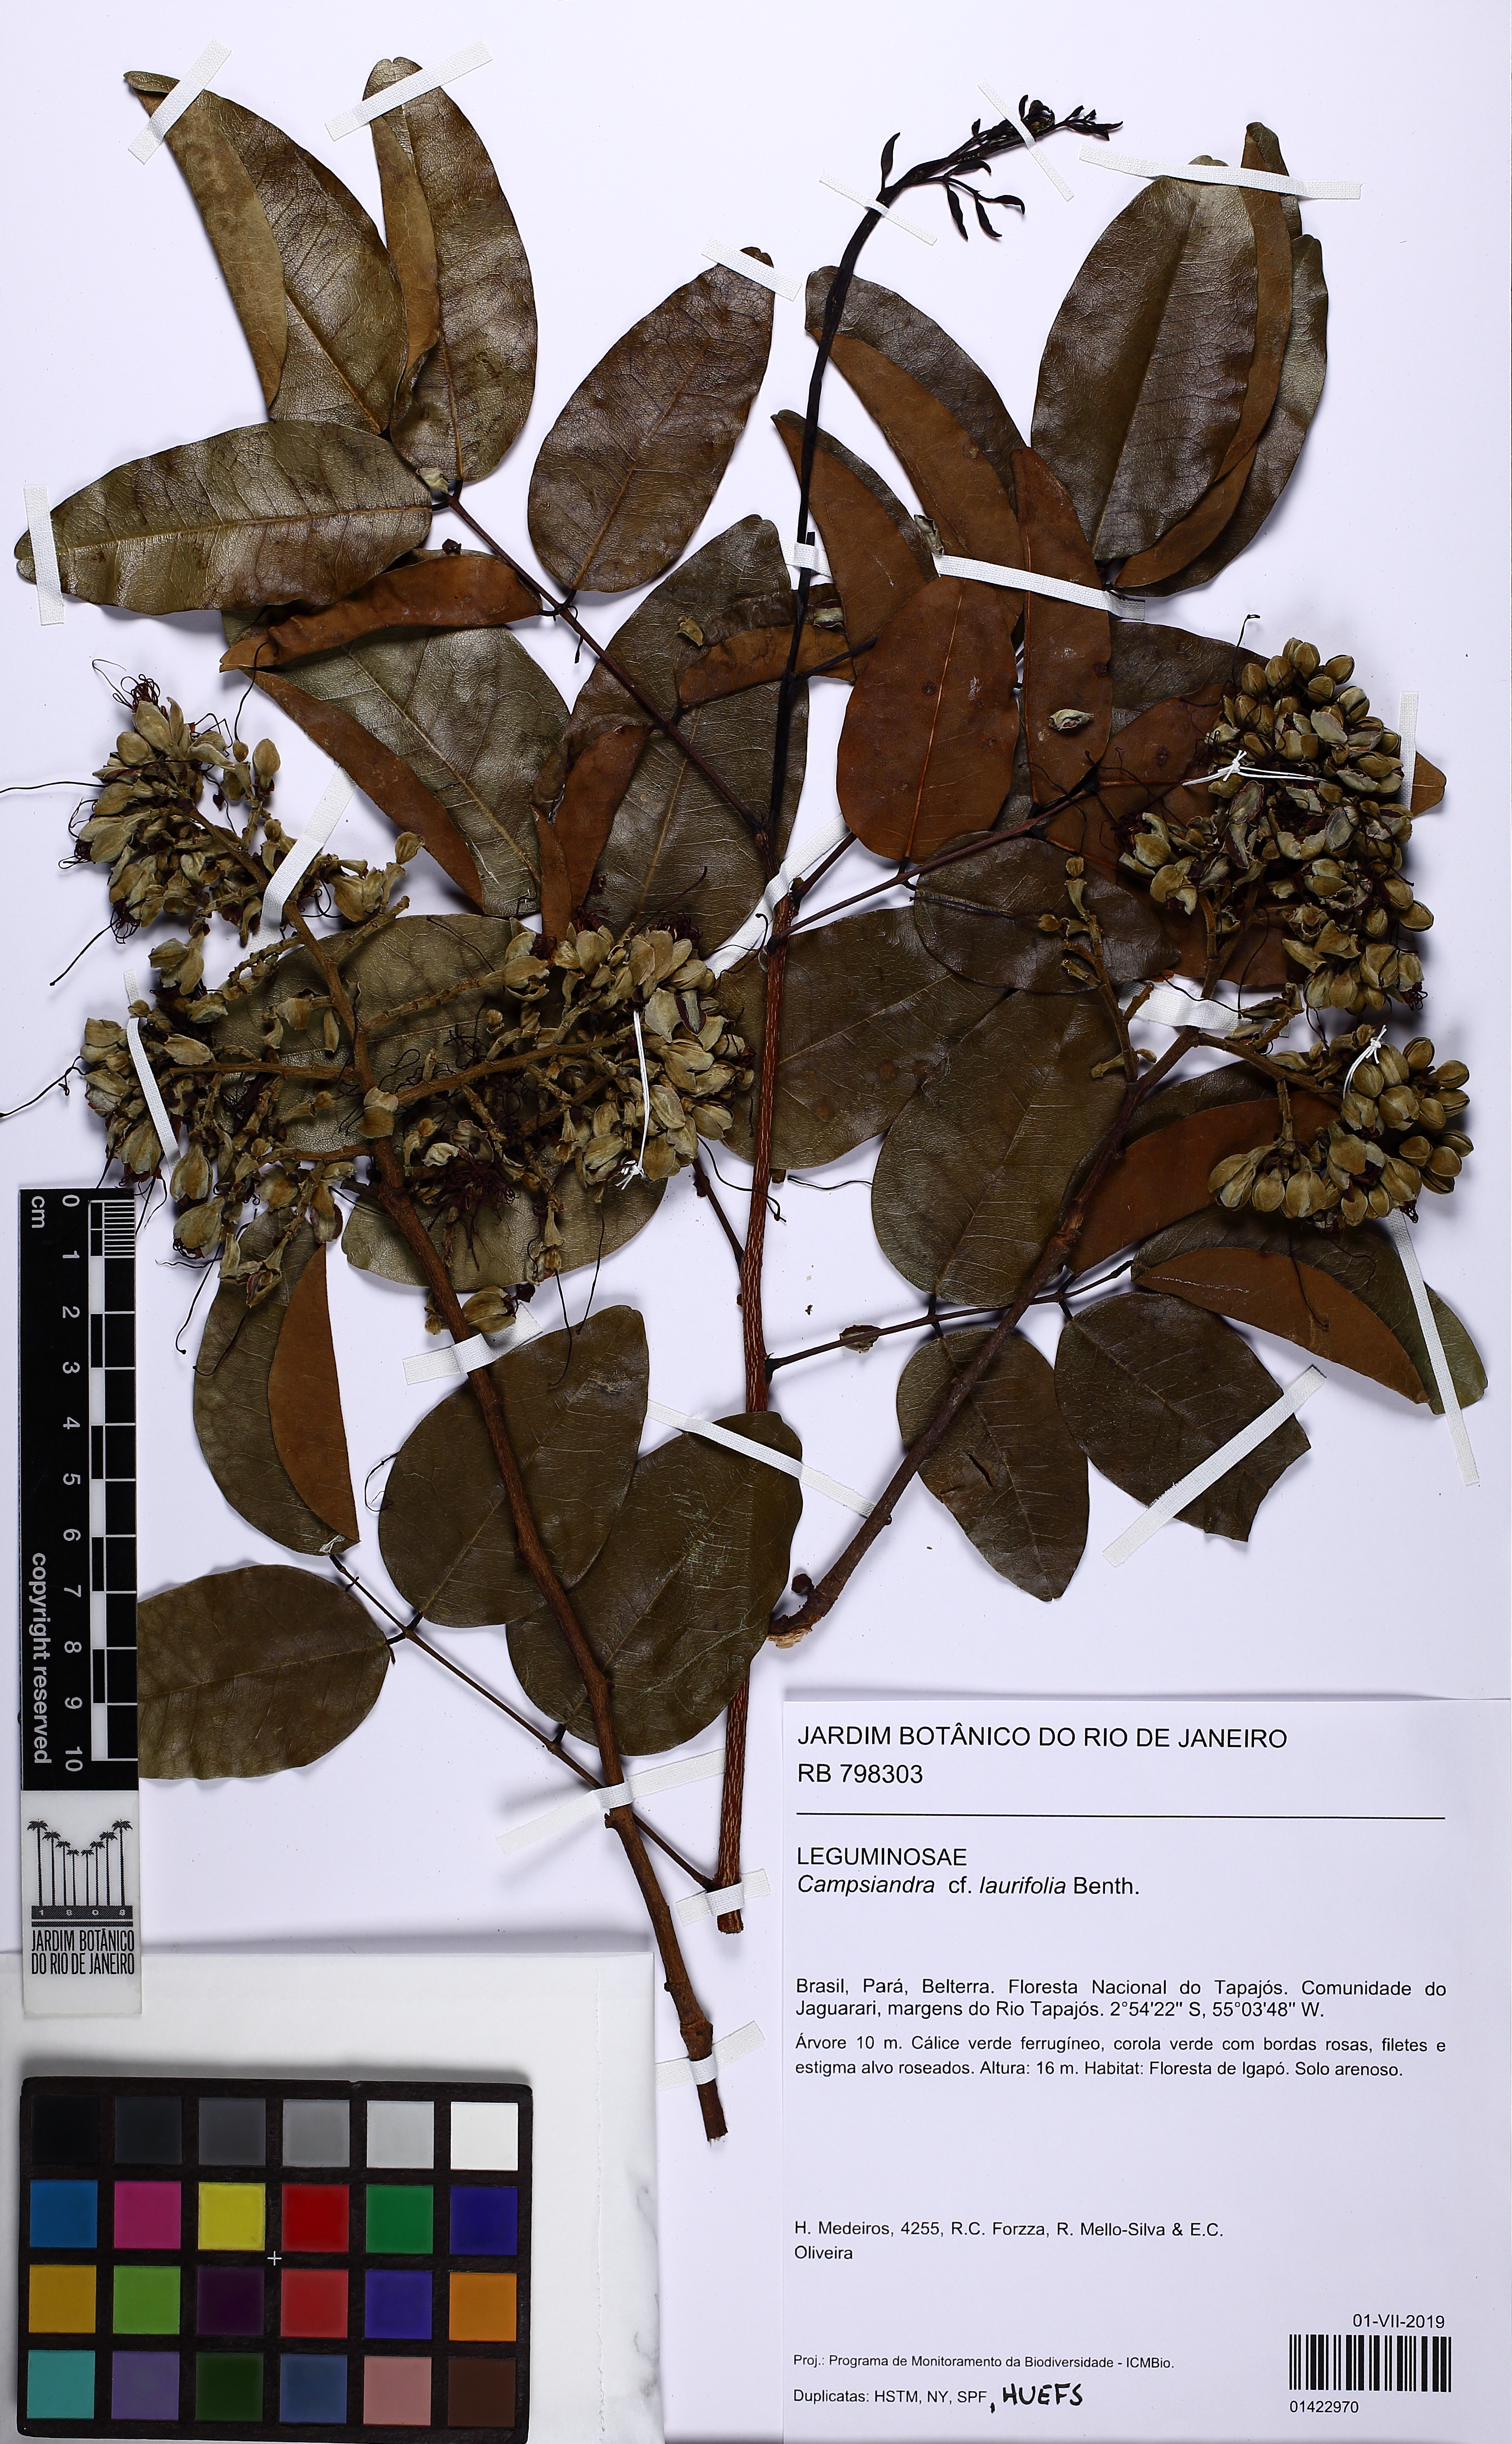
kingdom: Plantae
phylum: Tracheophyta
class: Magnoliopsida
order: Fabales
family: Fabaceae
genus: Campsiandra
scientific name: Campsiandra laurifolia
